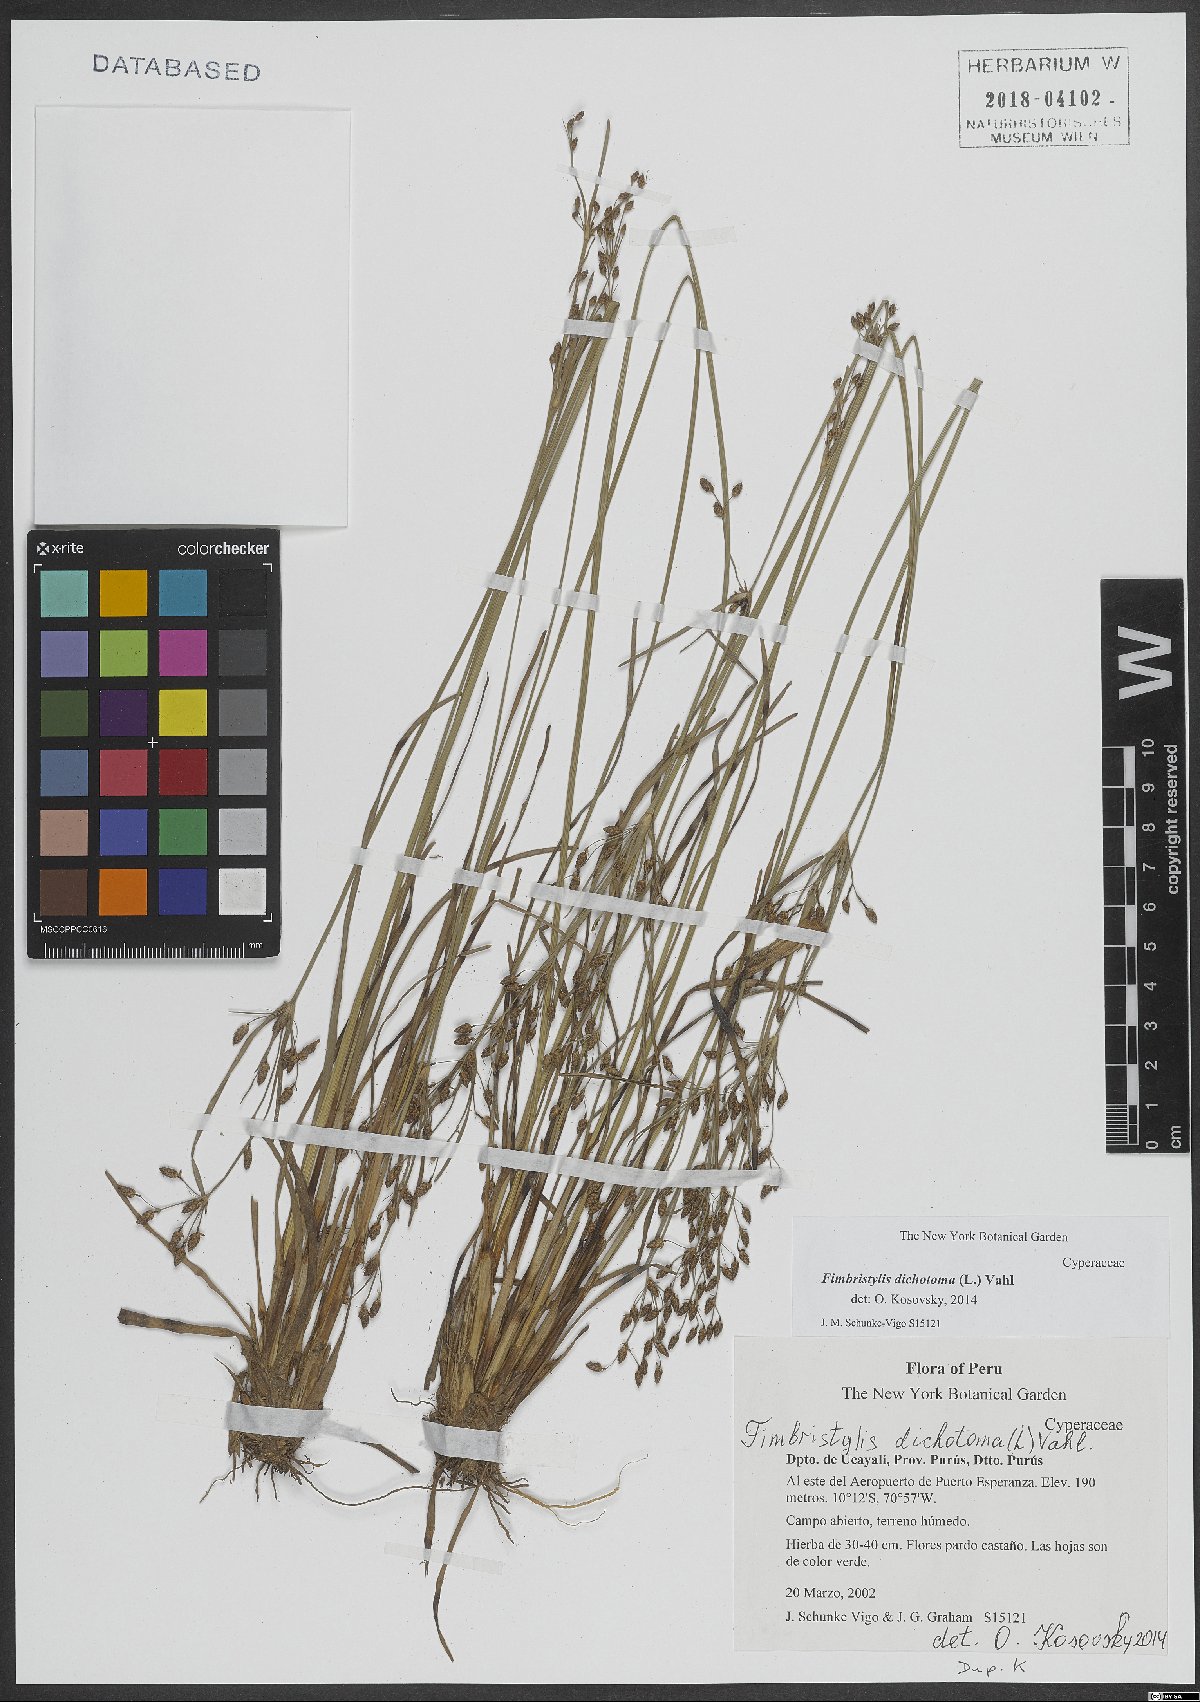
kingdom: Plantae
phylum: Tracheophyta
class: Liliopsida
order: Poales
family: Cyperaceae
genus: Fimbristylis
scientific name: Fimbristylis dichotoma
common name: Forked fimbry
